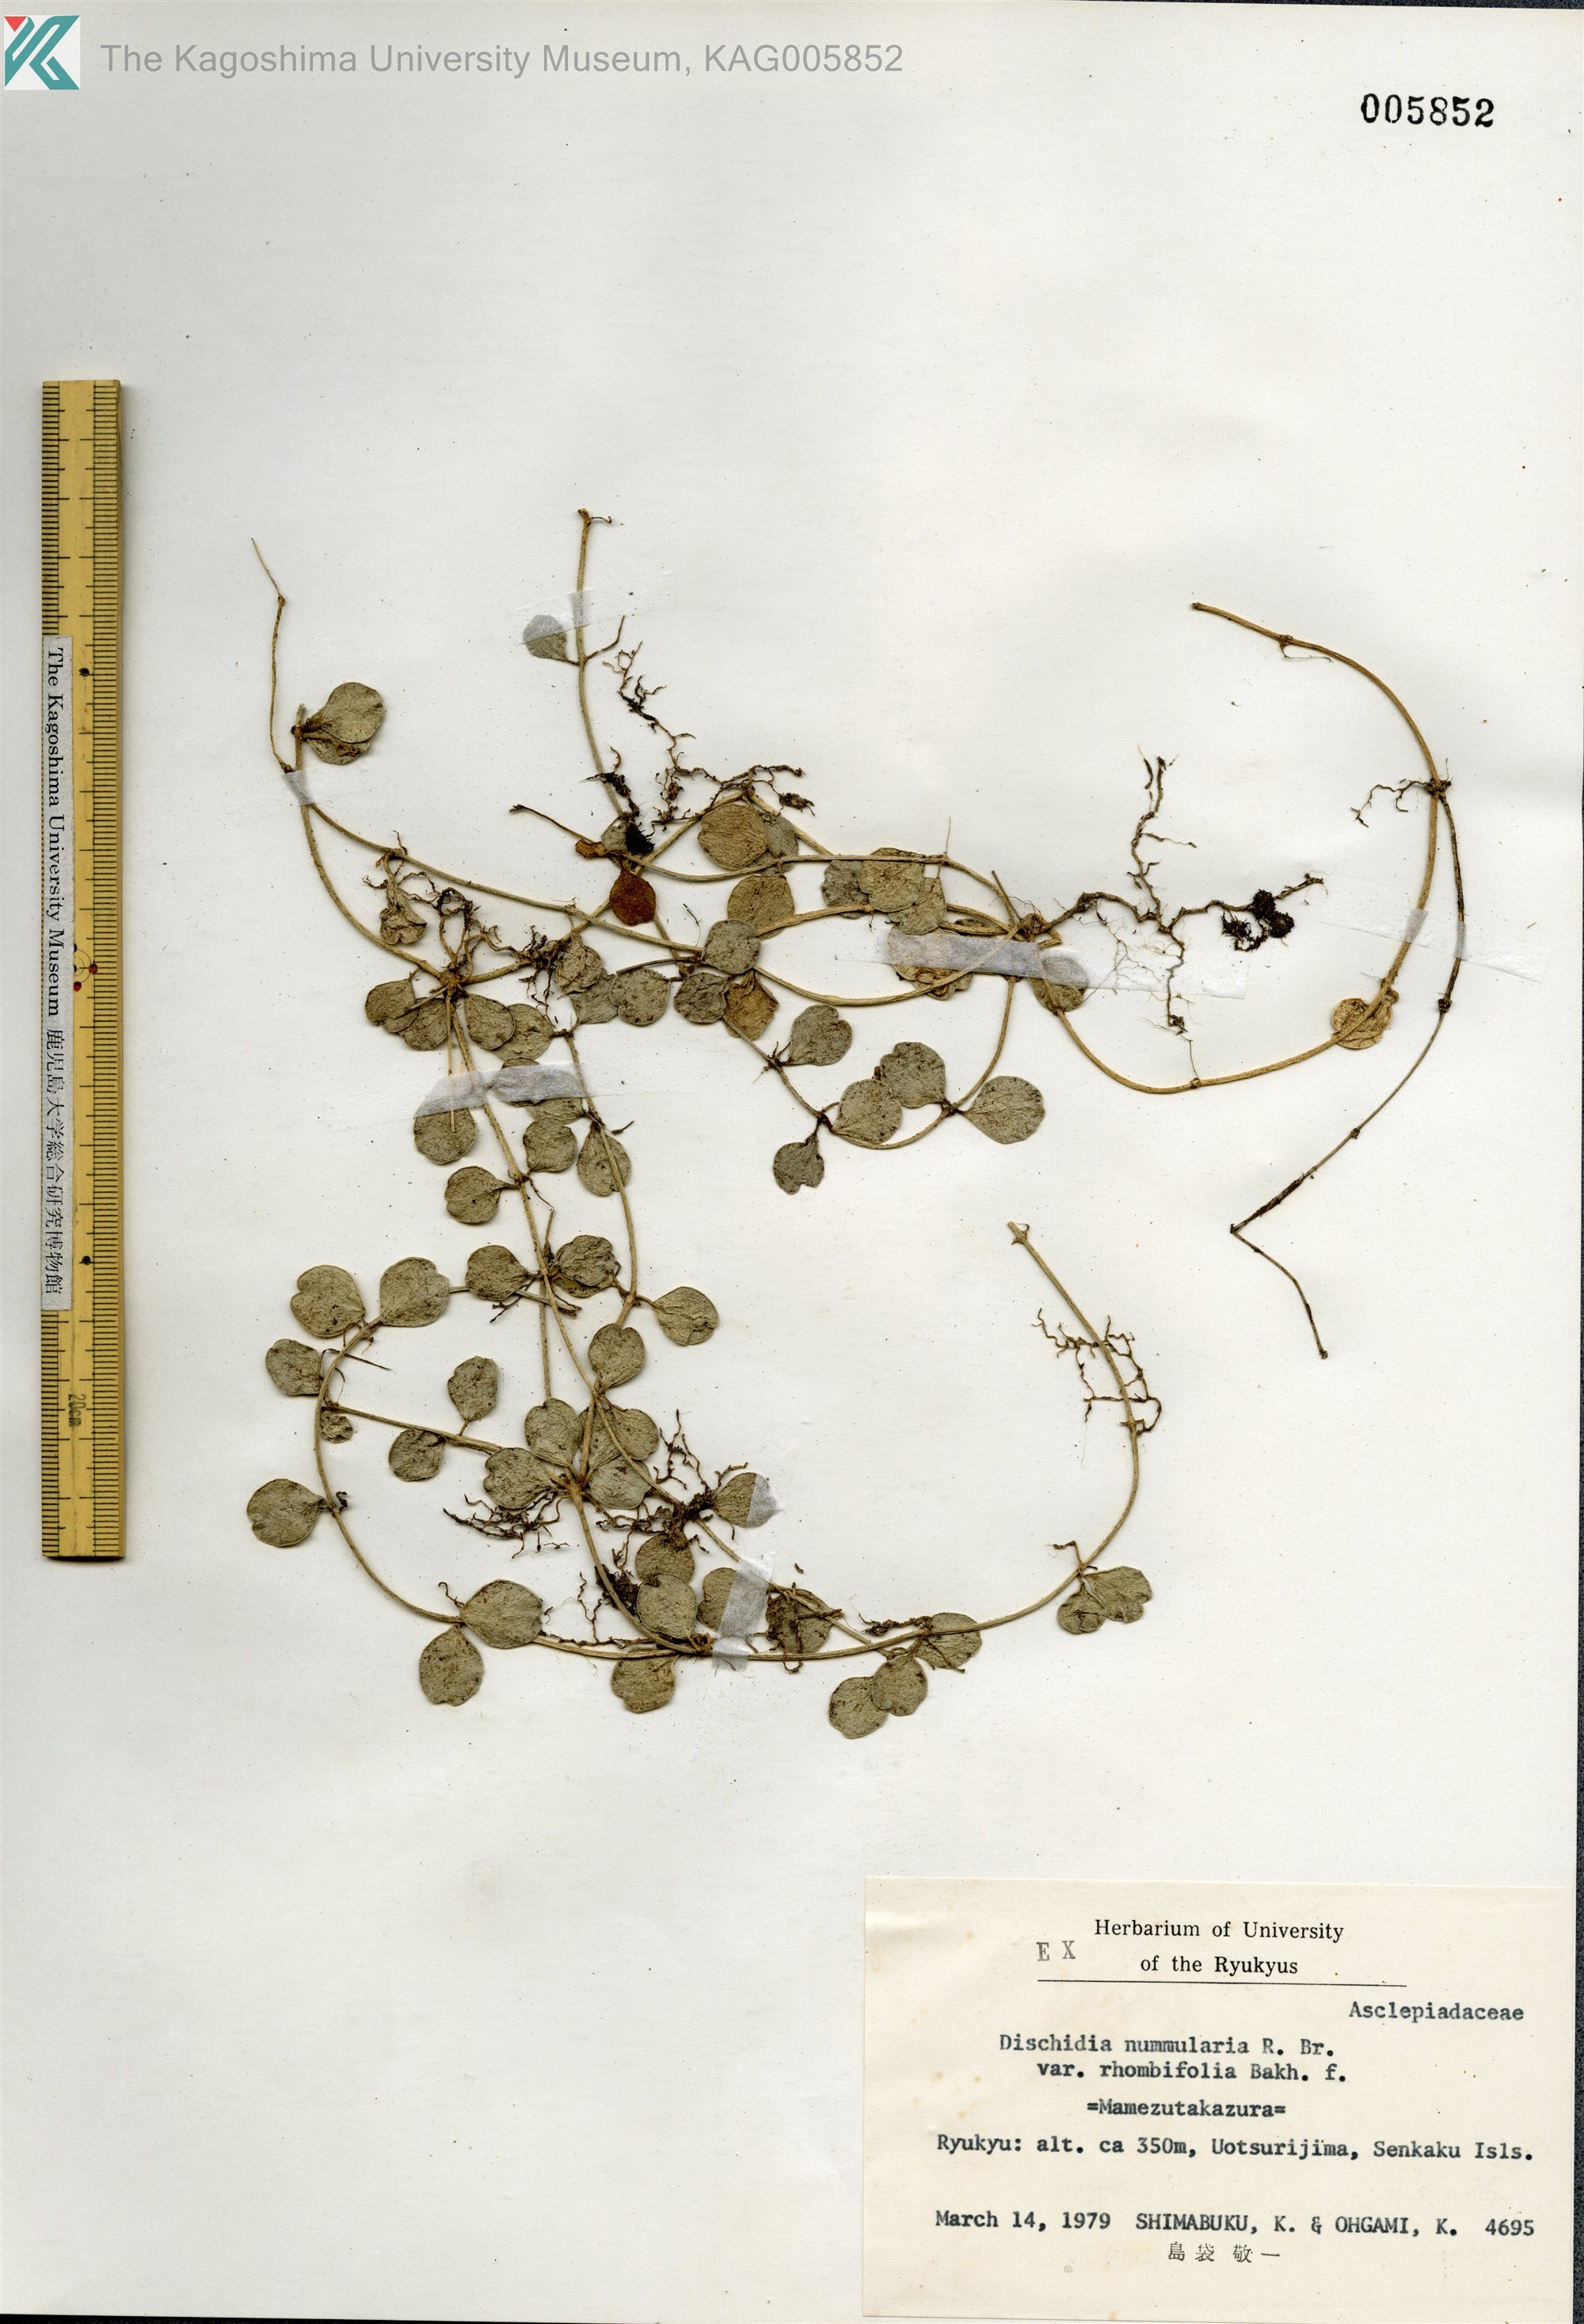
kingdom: Plantae
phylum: Tracheophyta
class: Magnoliopsida
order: Gentianales
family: Apocynaceae
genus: Dischidia
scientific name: Dischidia oiantha
